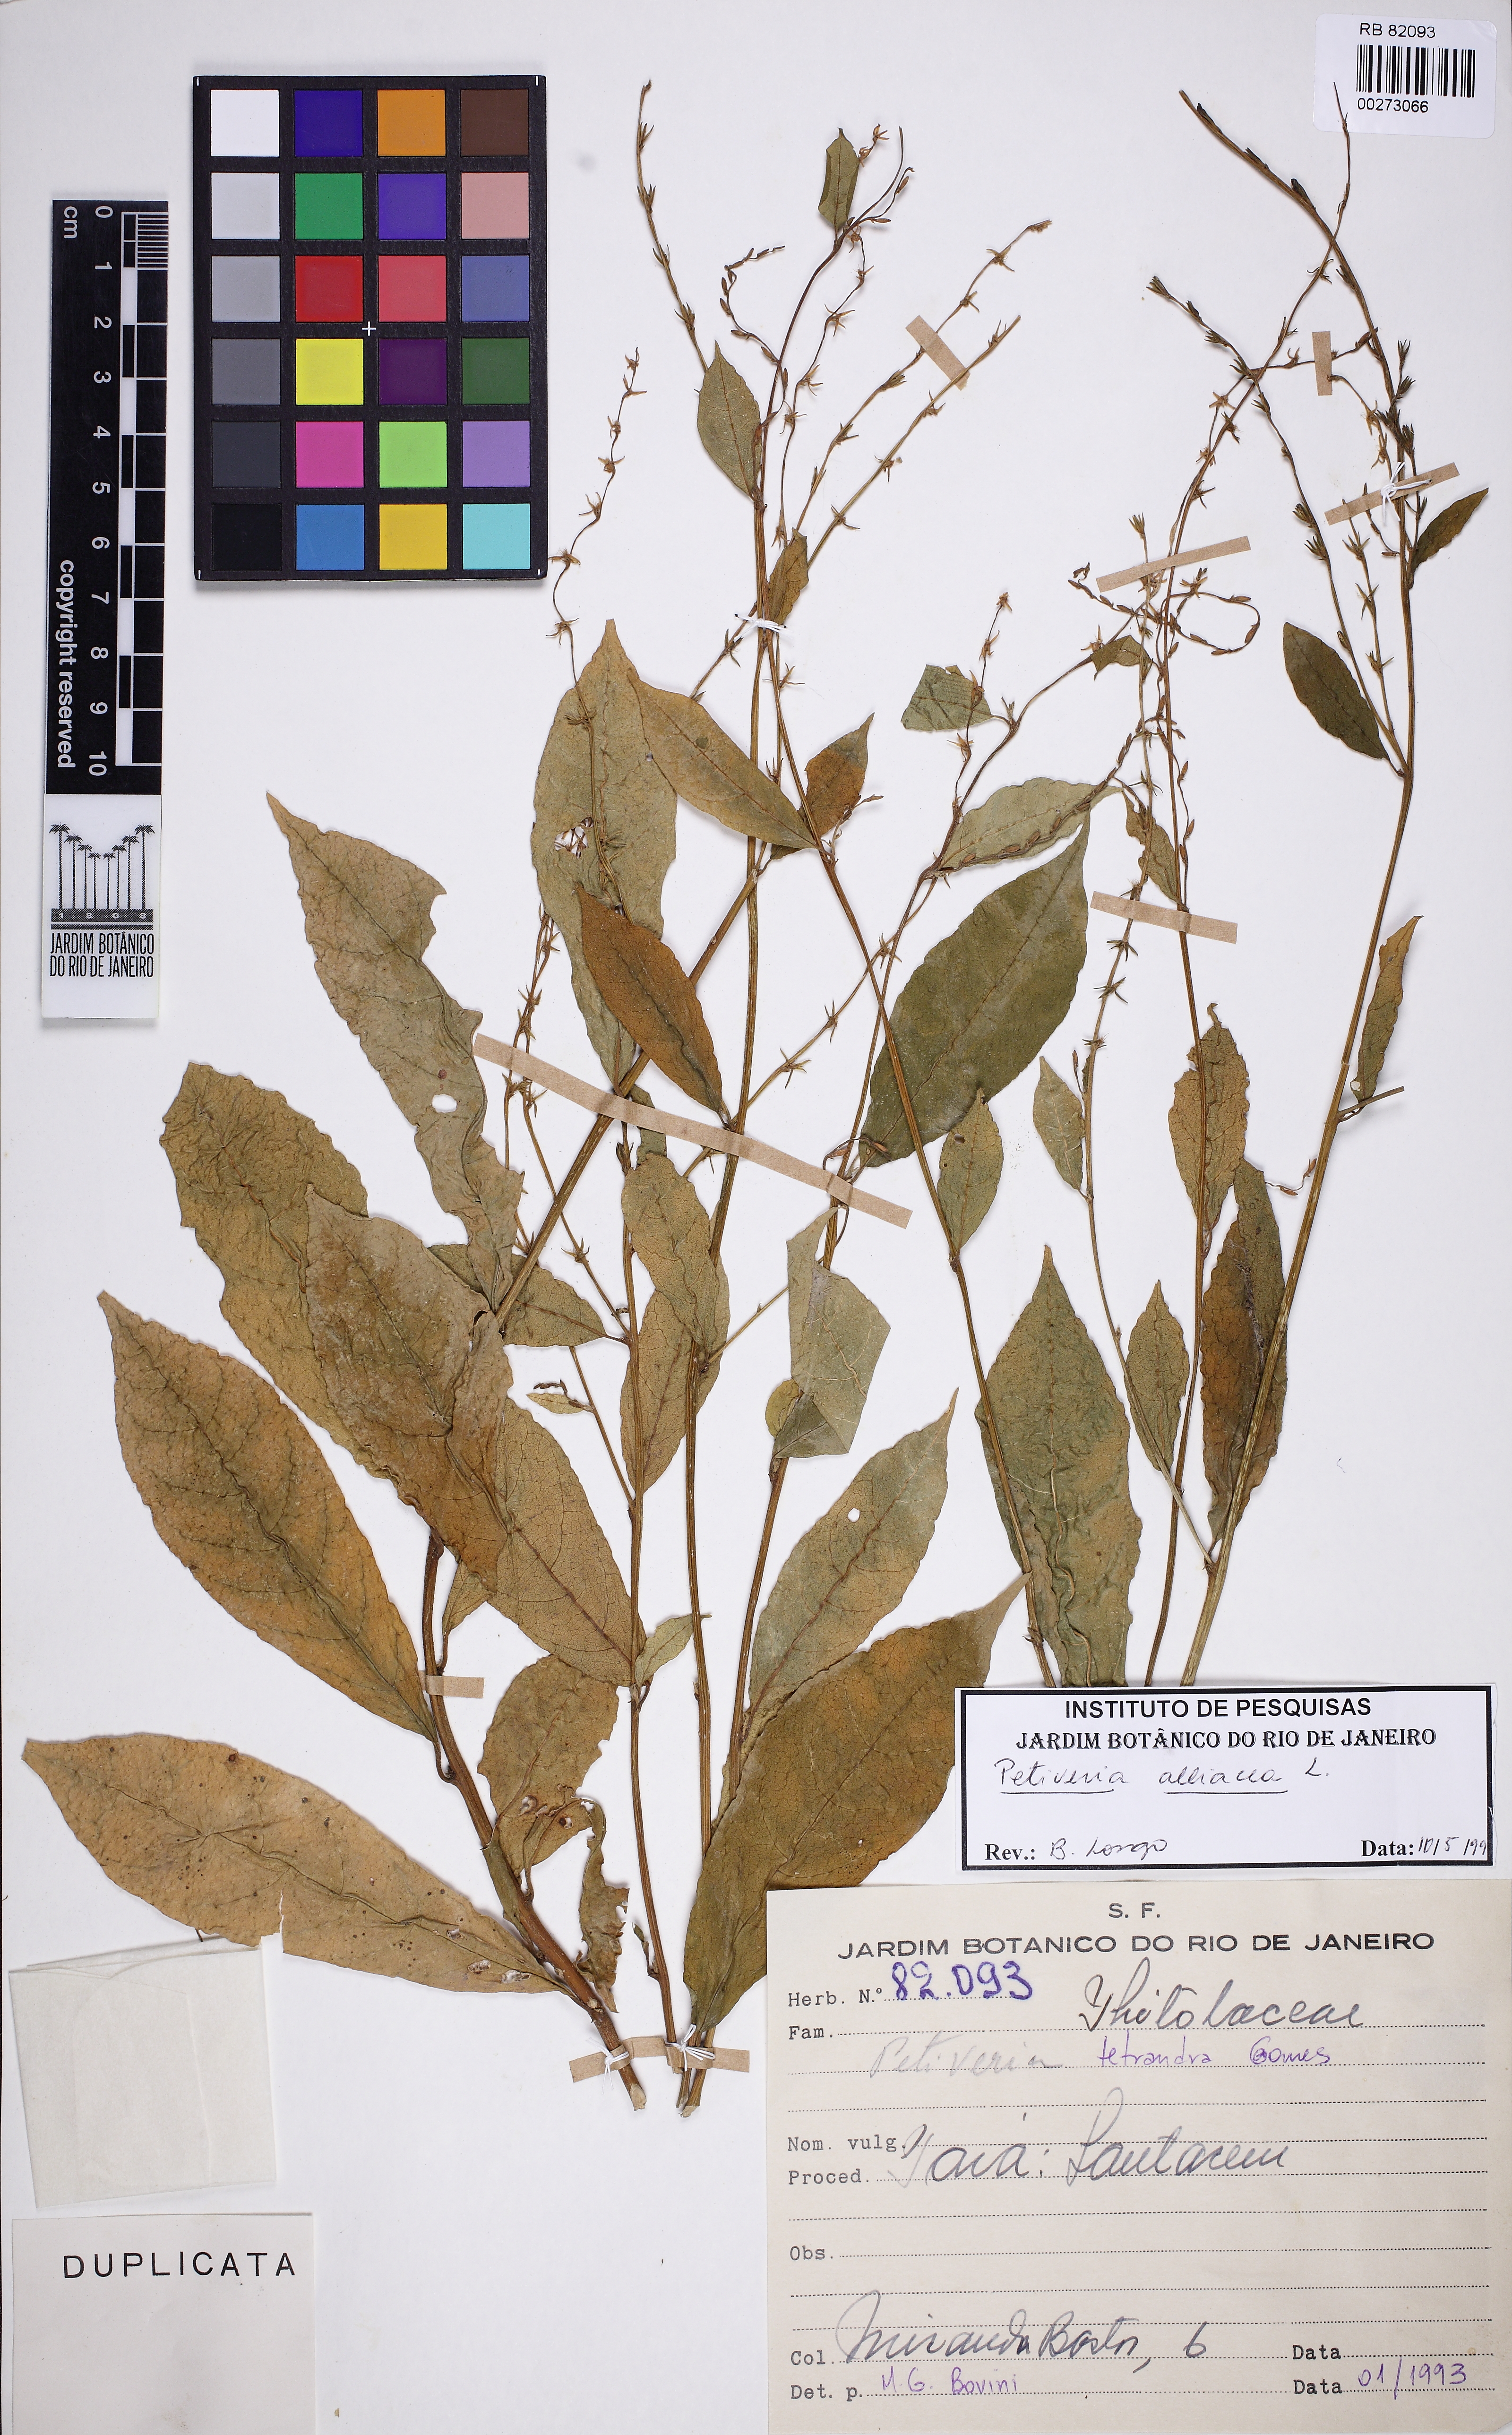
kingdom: Plantae
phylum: Tracheophyta
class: Magnoliopsida
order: Caryophyllales
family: Phytolaccaceae
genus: Petiveria
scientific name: Petiveria alliacea
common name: Garlicweed
